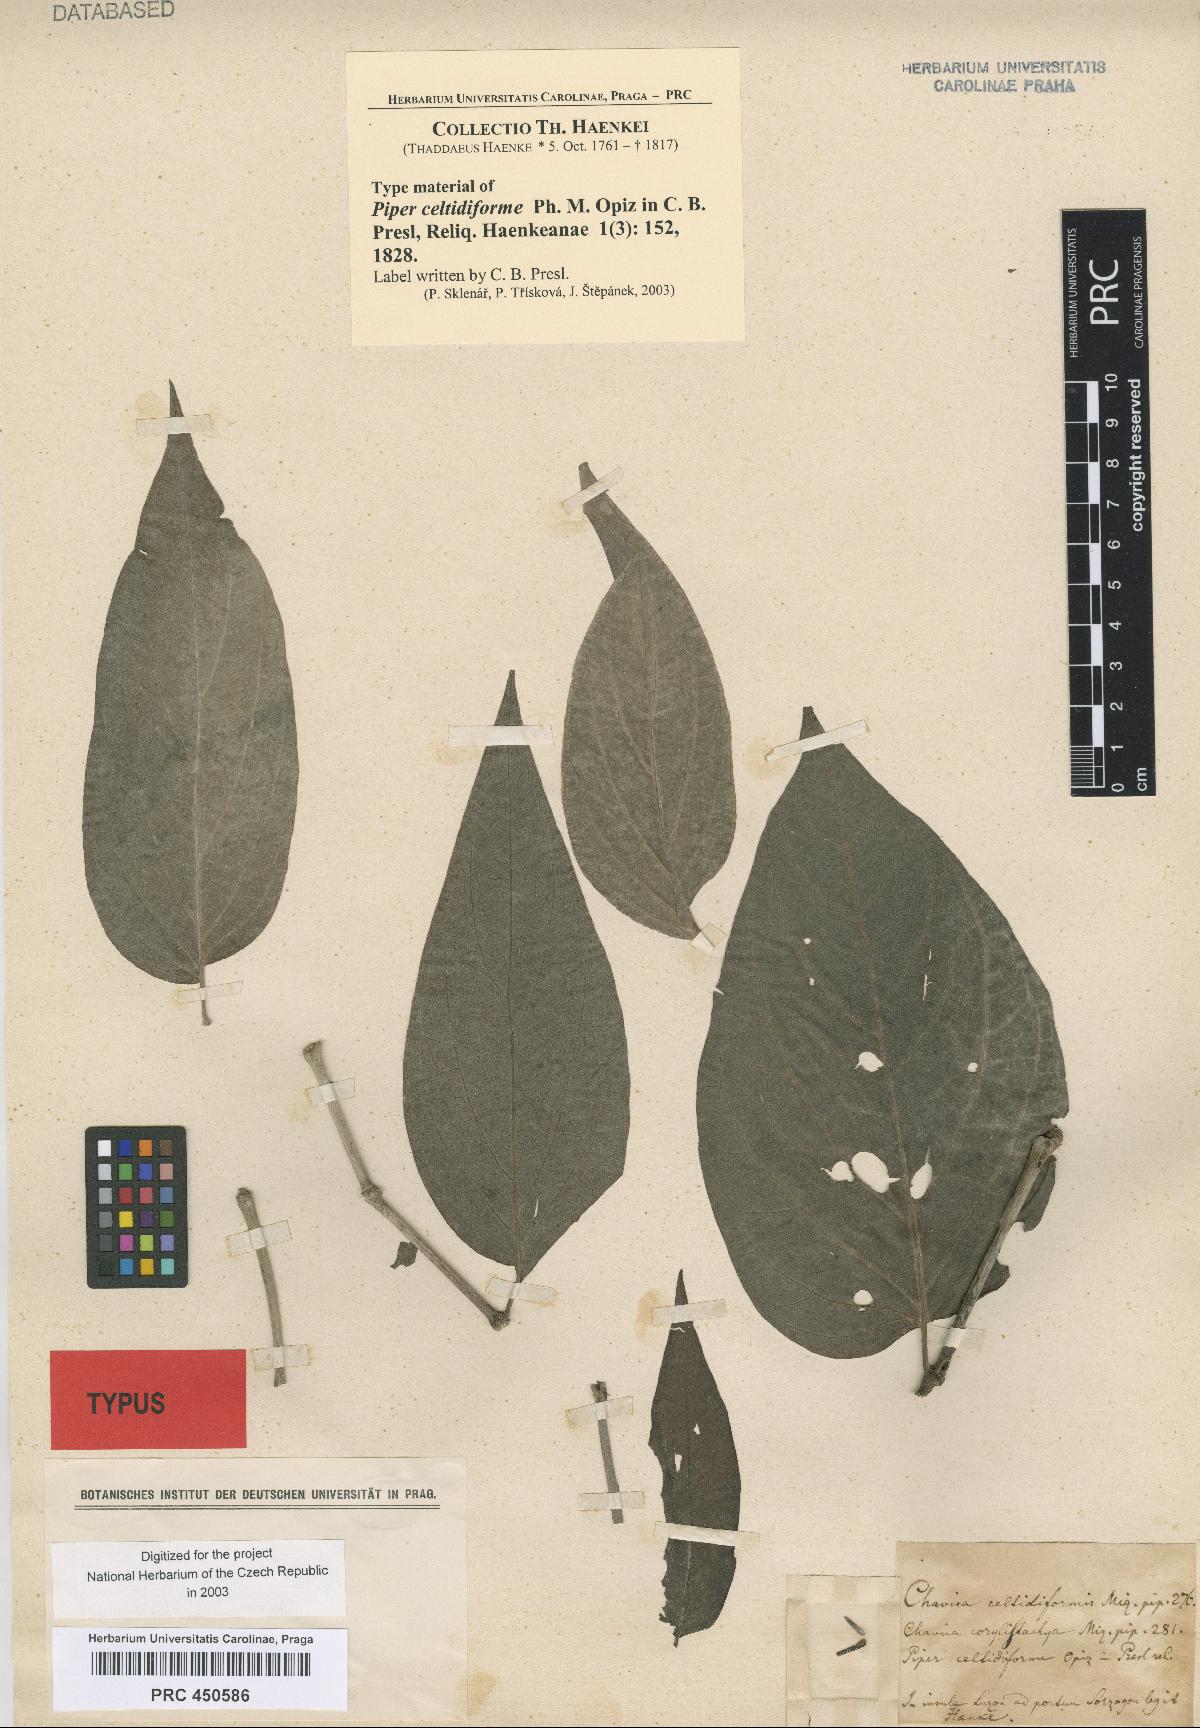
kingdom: Plantae
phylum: Tracheophyta
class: Magnoliopsida
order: Piperales
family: Piperaceae
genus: Piper
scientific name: Piper celtidiforme
